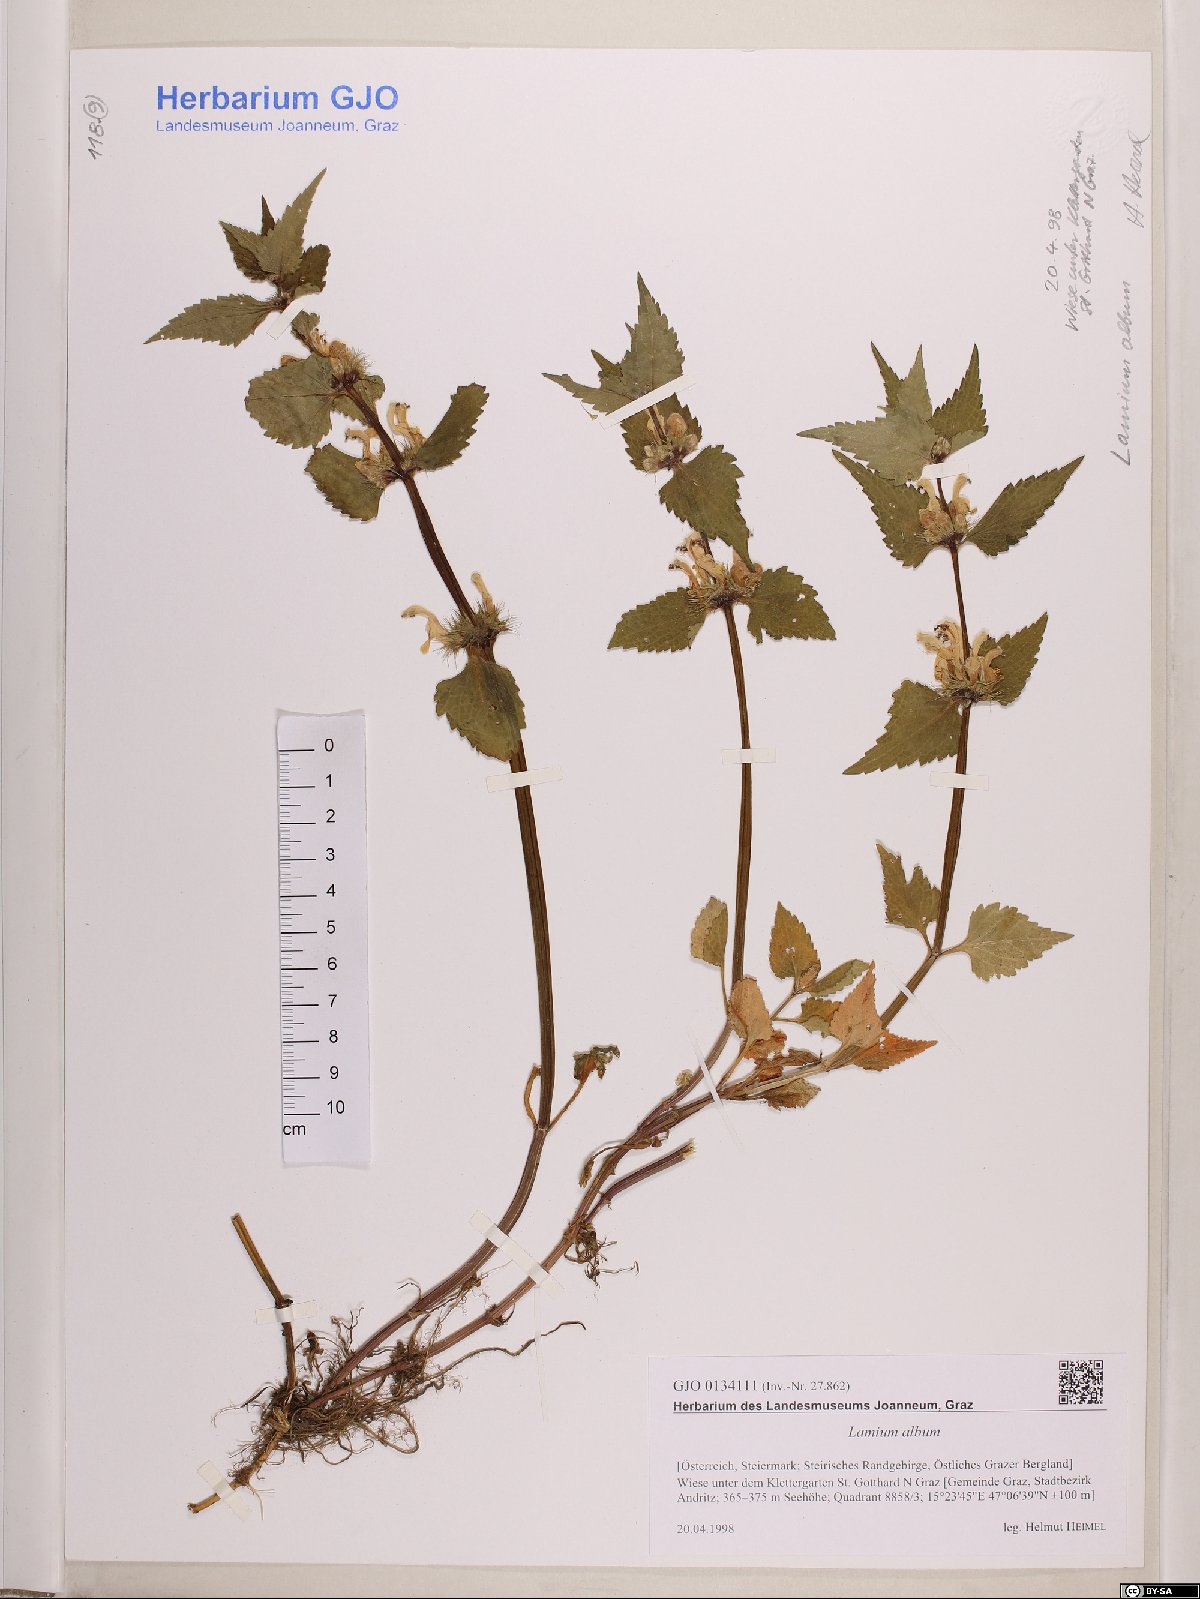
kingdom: Plantae
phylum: Tracheophyta
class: Magnoliopsida
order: Lamiales
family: Lamiaceae
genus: Lamium
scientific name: Lamium album
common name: White dead-nettle
